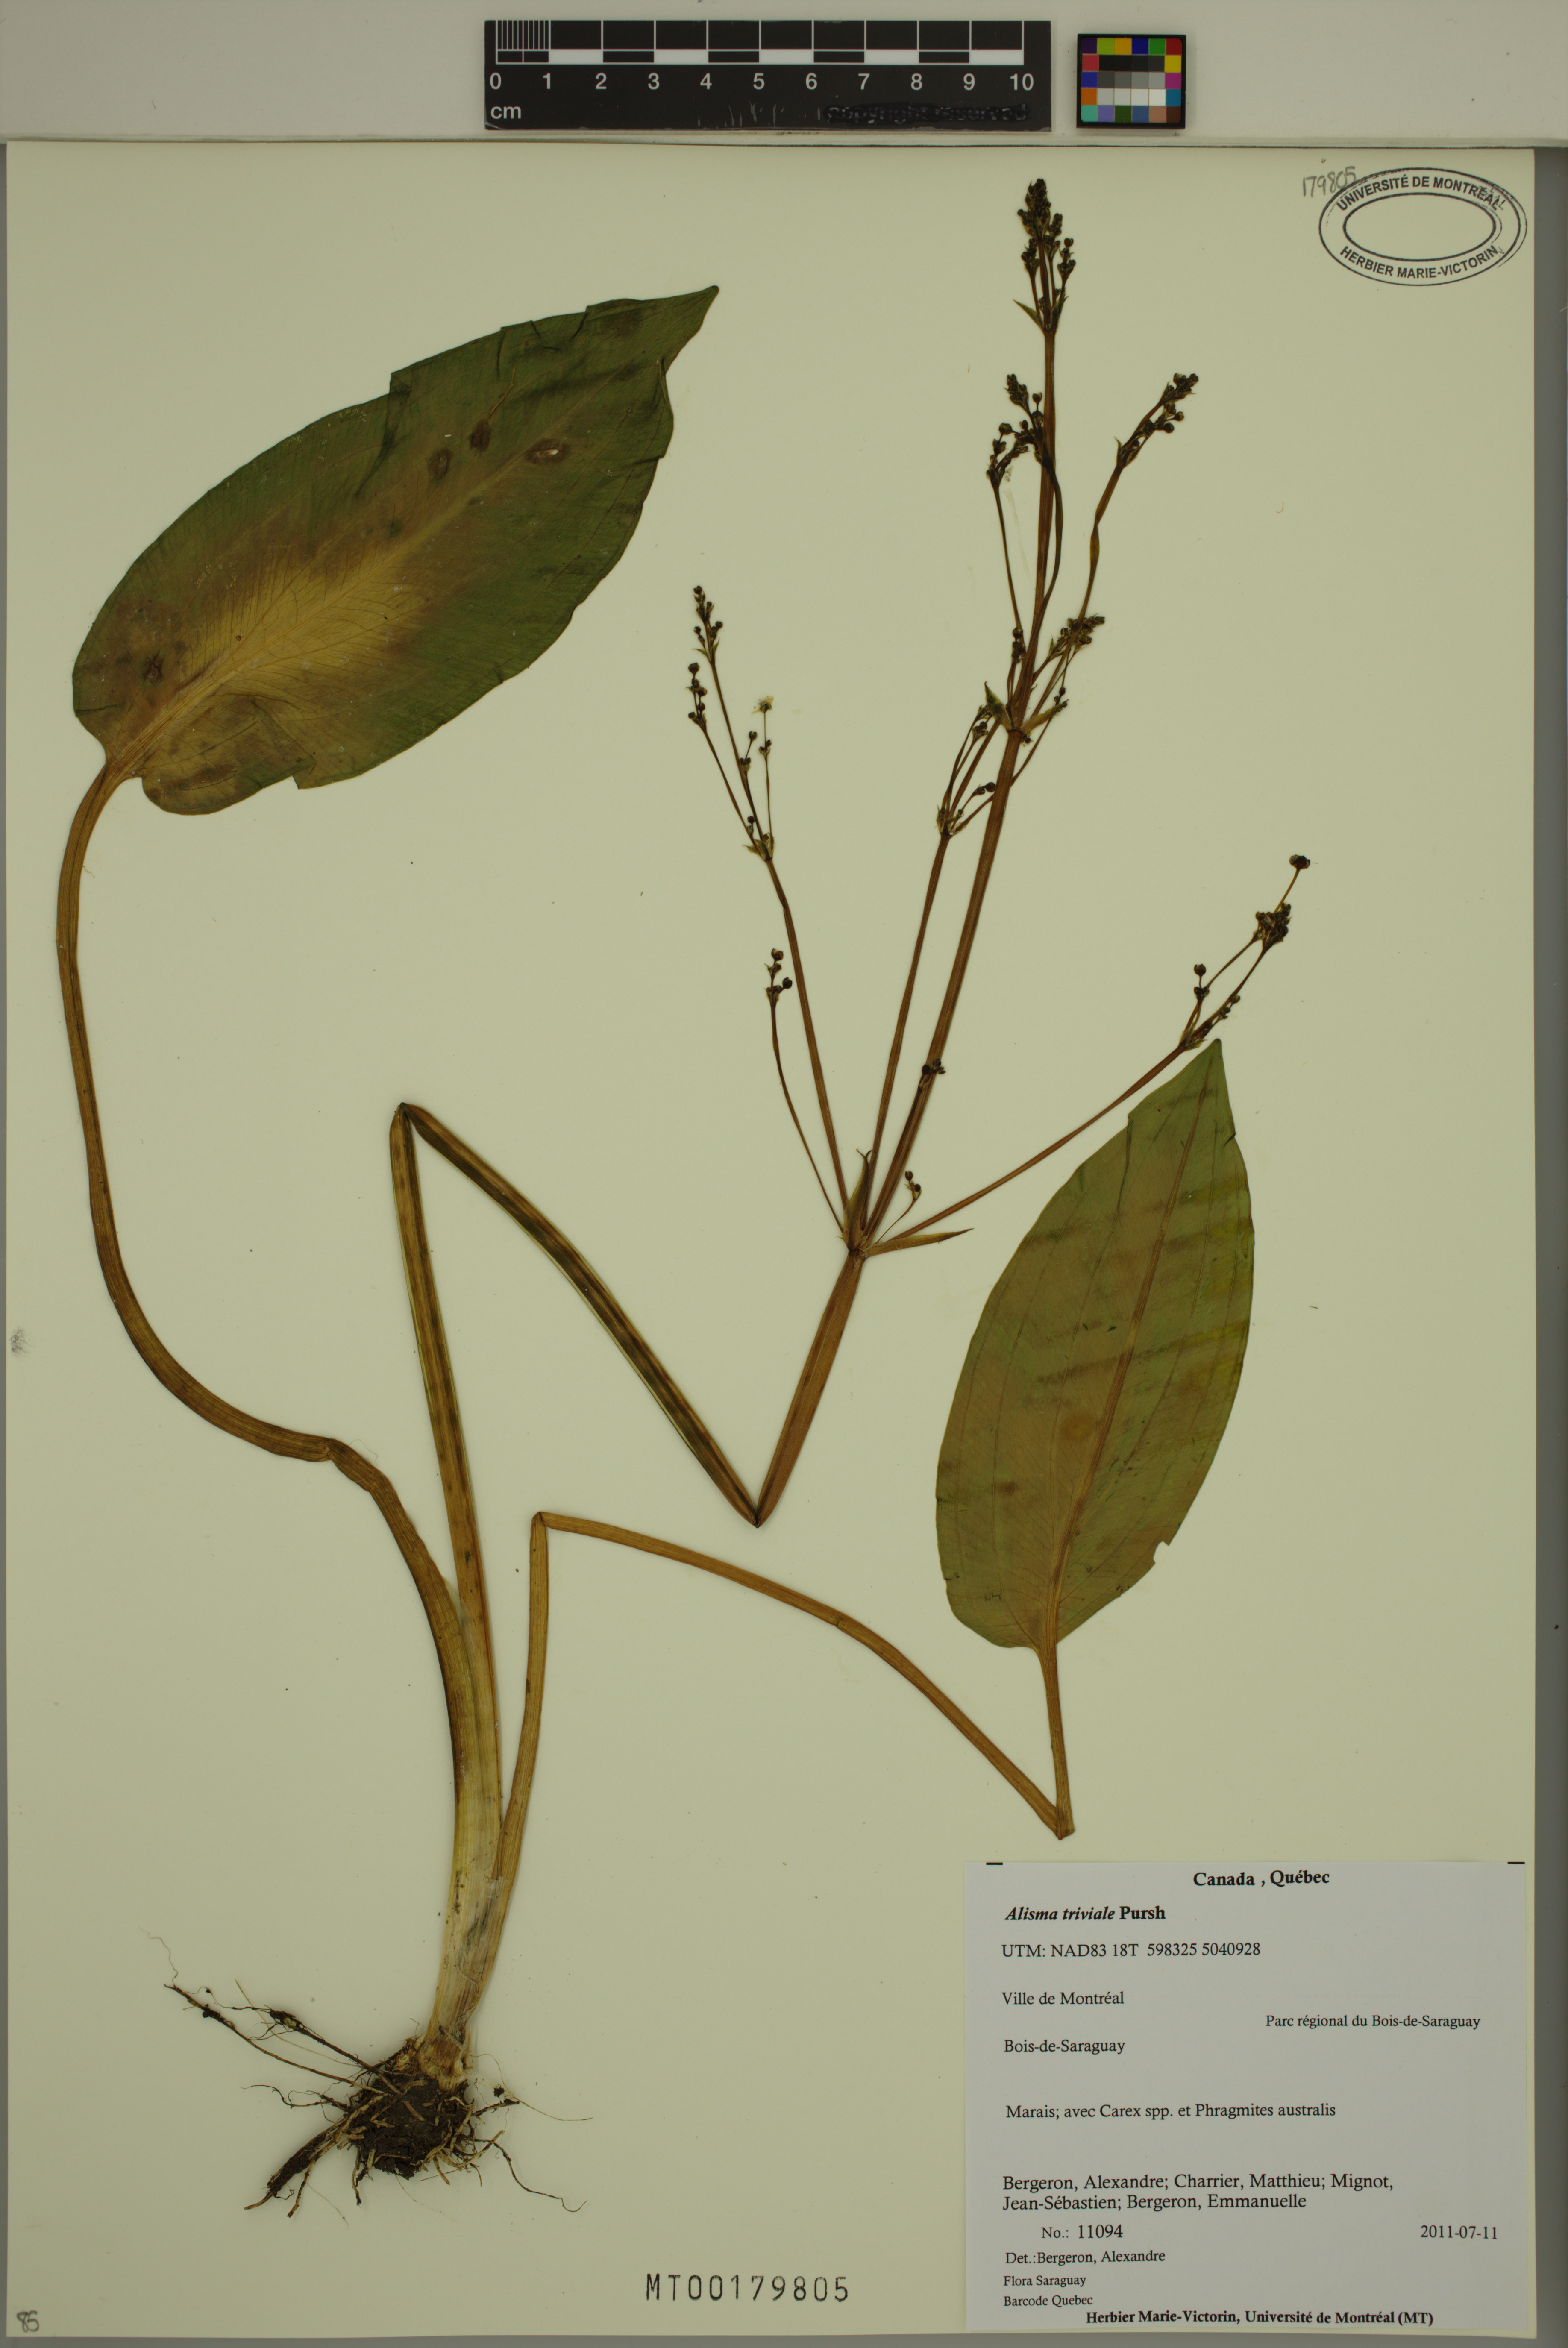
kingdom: Plantae
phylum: Tracheophyta
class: Liliopsida
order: Alismatales
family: Alismataceae
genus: Alisma
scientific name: Alisma triviale
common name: Northern water-plantain
